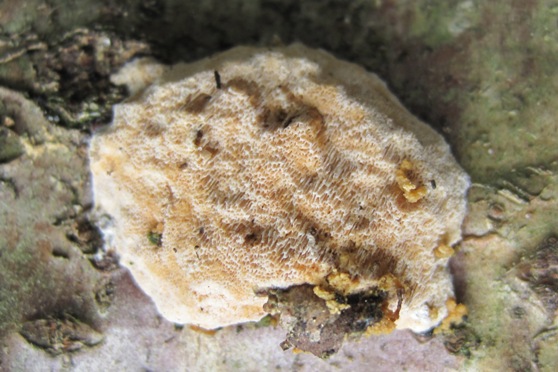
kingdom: Fungi
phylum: Basidiomycota
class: Agaricomycetes
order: Hymenochaetales
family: Schizoporaceae
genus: Xylodon
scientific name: Xylodon flaviporus
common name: gulporet tandsvamp
